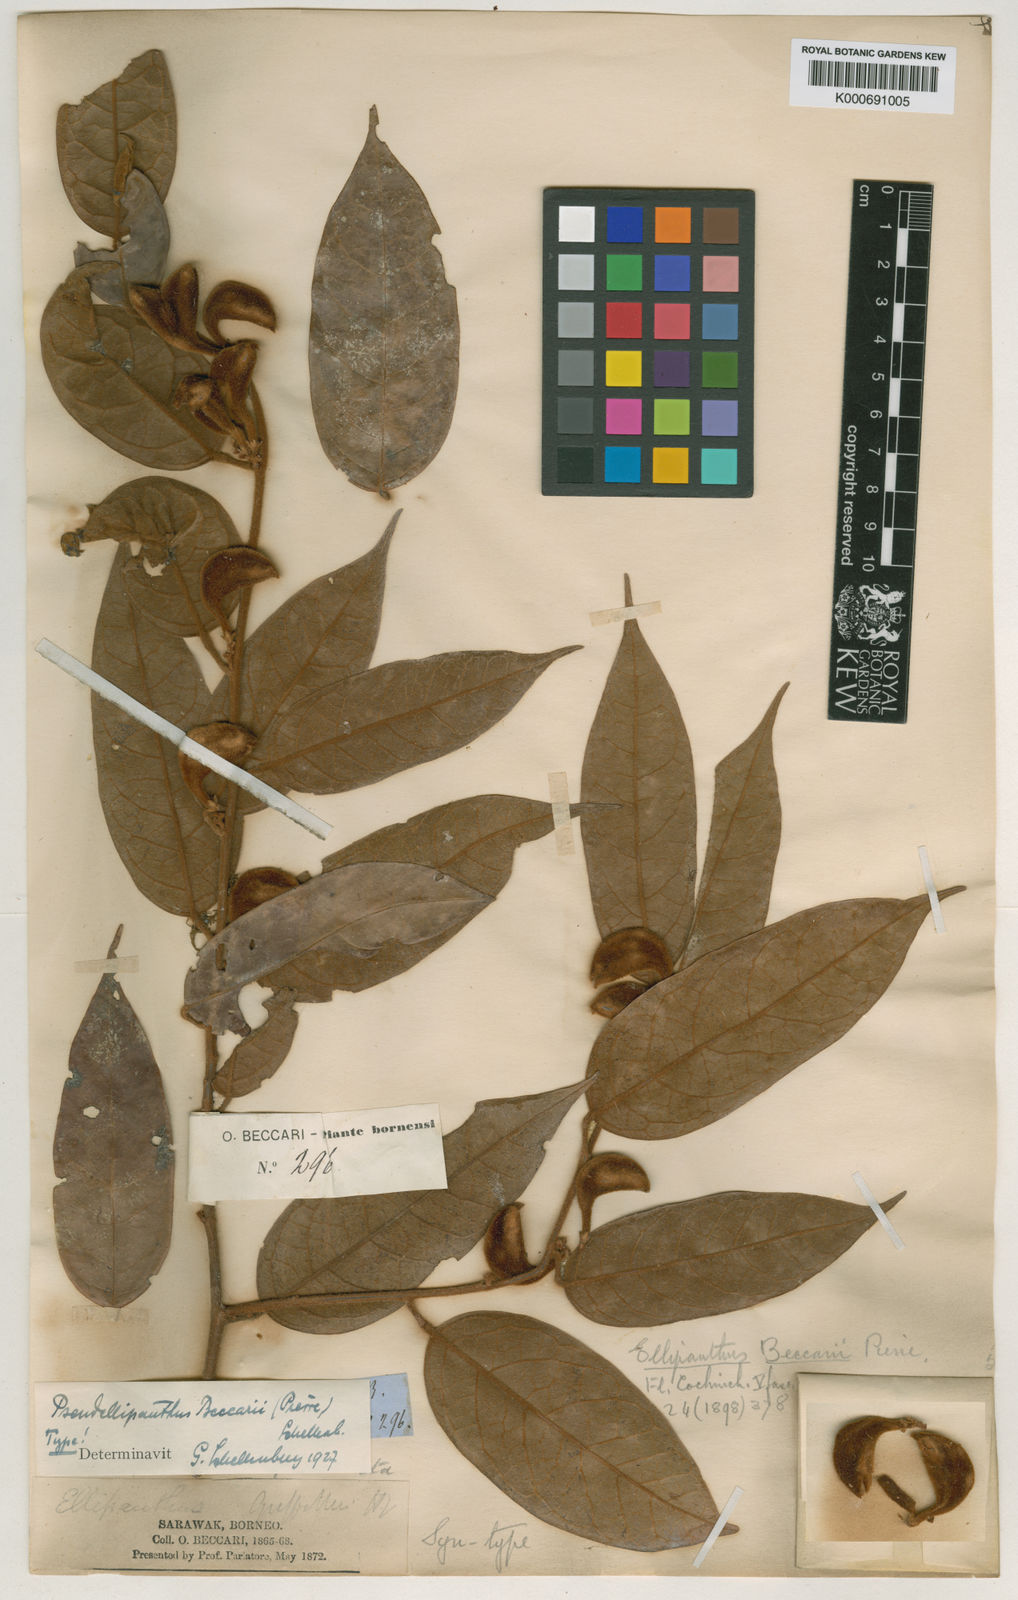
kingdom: Plantae
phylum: Tracheophyta
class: Magnoliopsida
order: Oxalidales
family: Connaraceae
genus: Ellipanthus
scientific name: Ellipanthus beccarii
